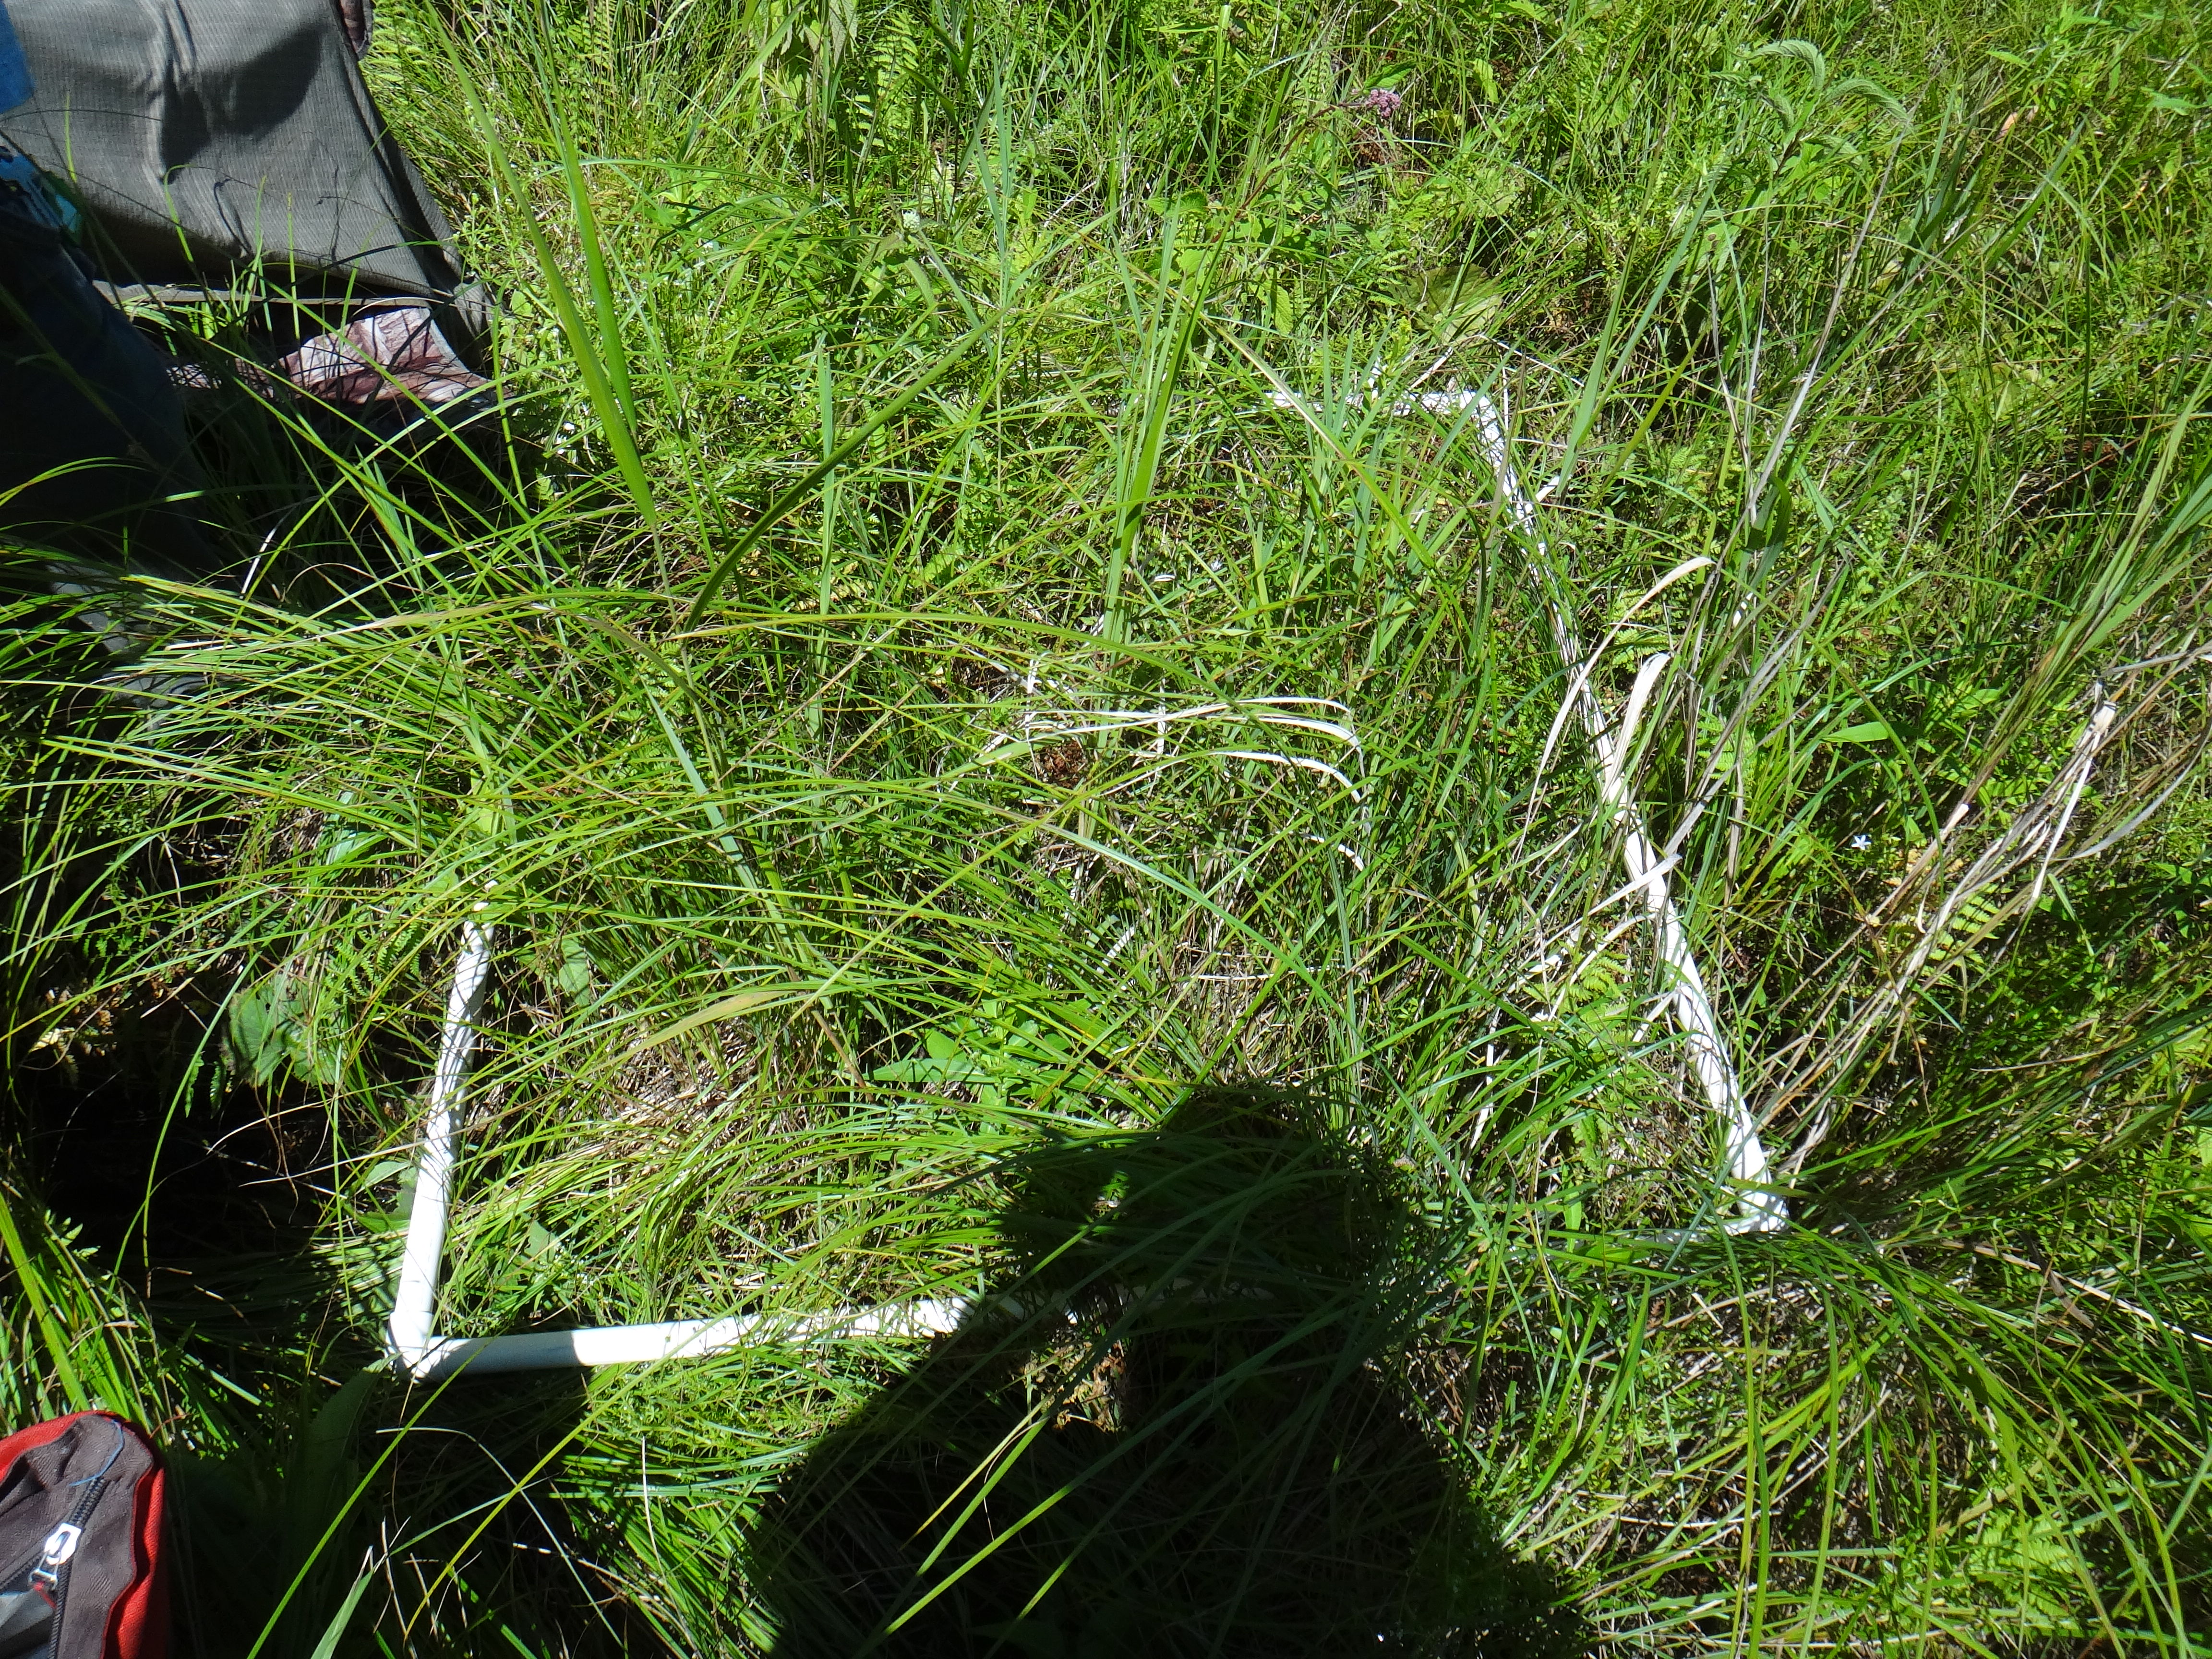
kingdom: Plantae
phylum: Tracheophyta
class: Liliopsida
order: Poales
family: Cyperaceae
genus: Carex
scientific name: Carex lasiocarpa
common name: Slender sedge
